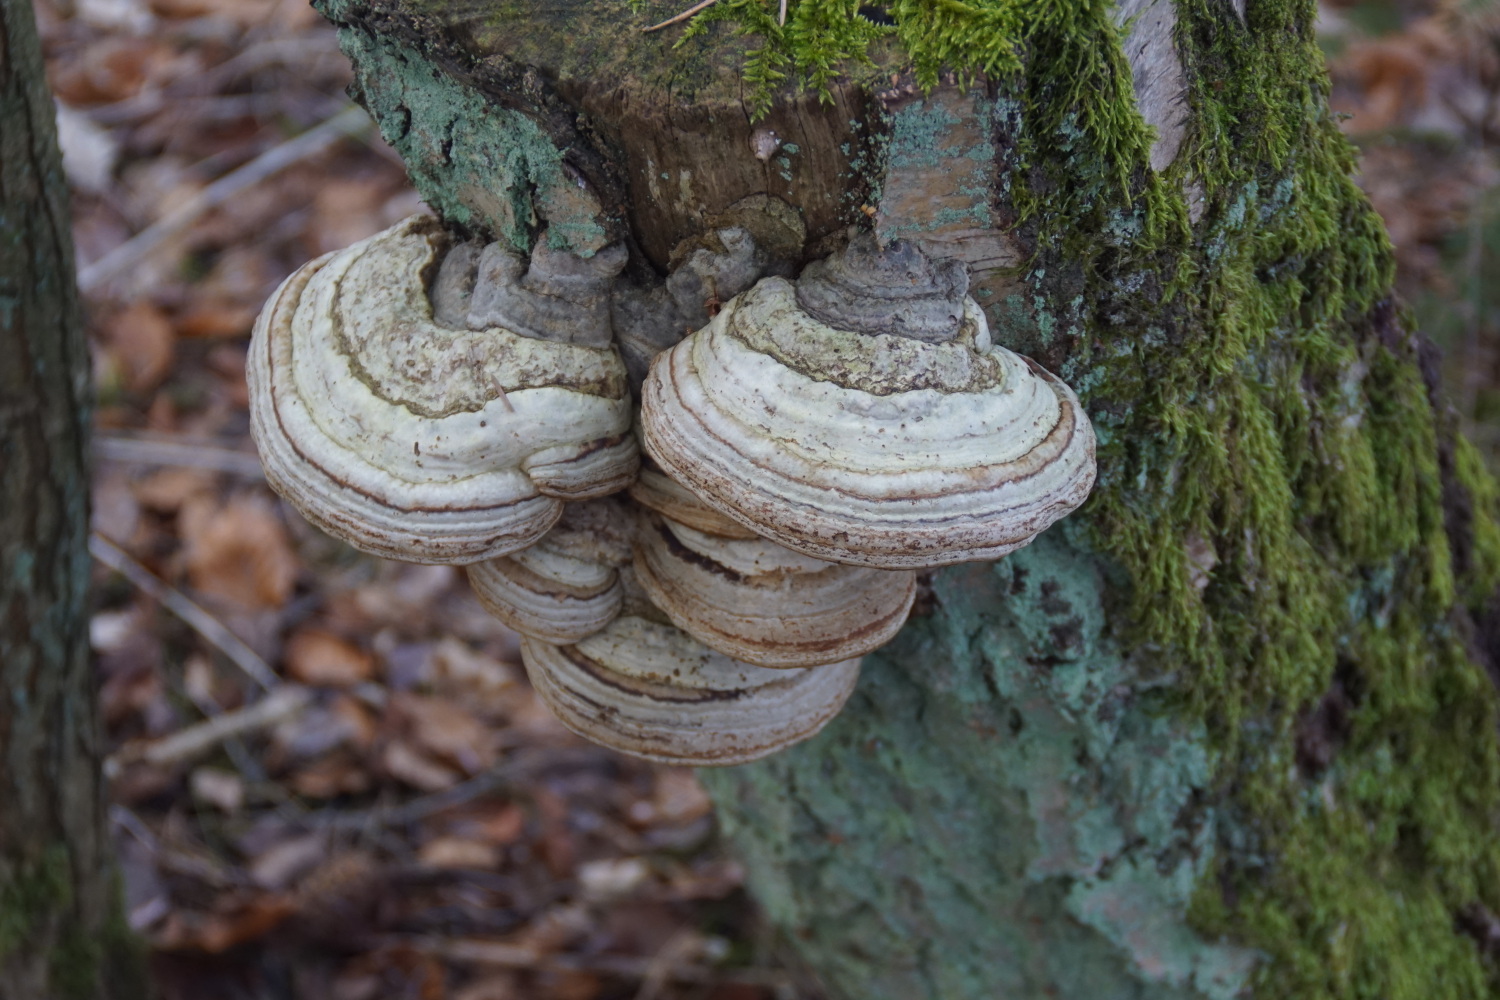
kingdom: Fungi
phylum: Basidiomycota
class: Agaricomycetes
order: Polyporales
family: Polyporaceae
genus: Fomes
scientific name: Fomes fomentarius
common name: tøndersvamp
